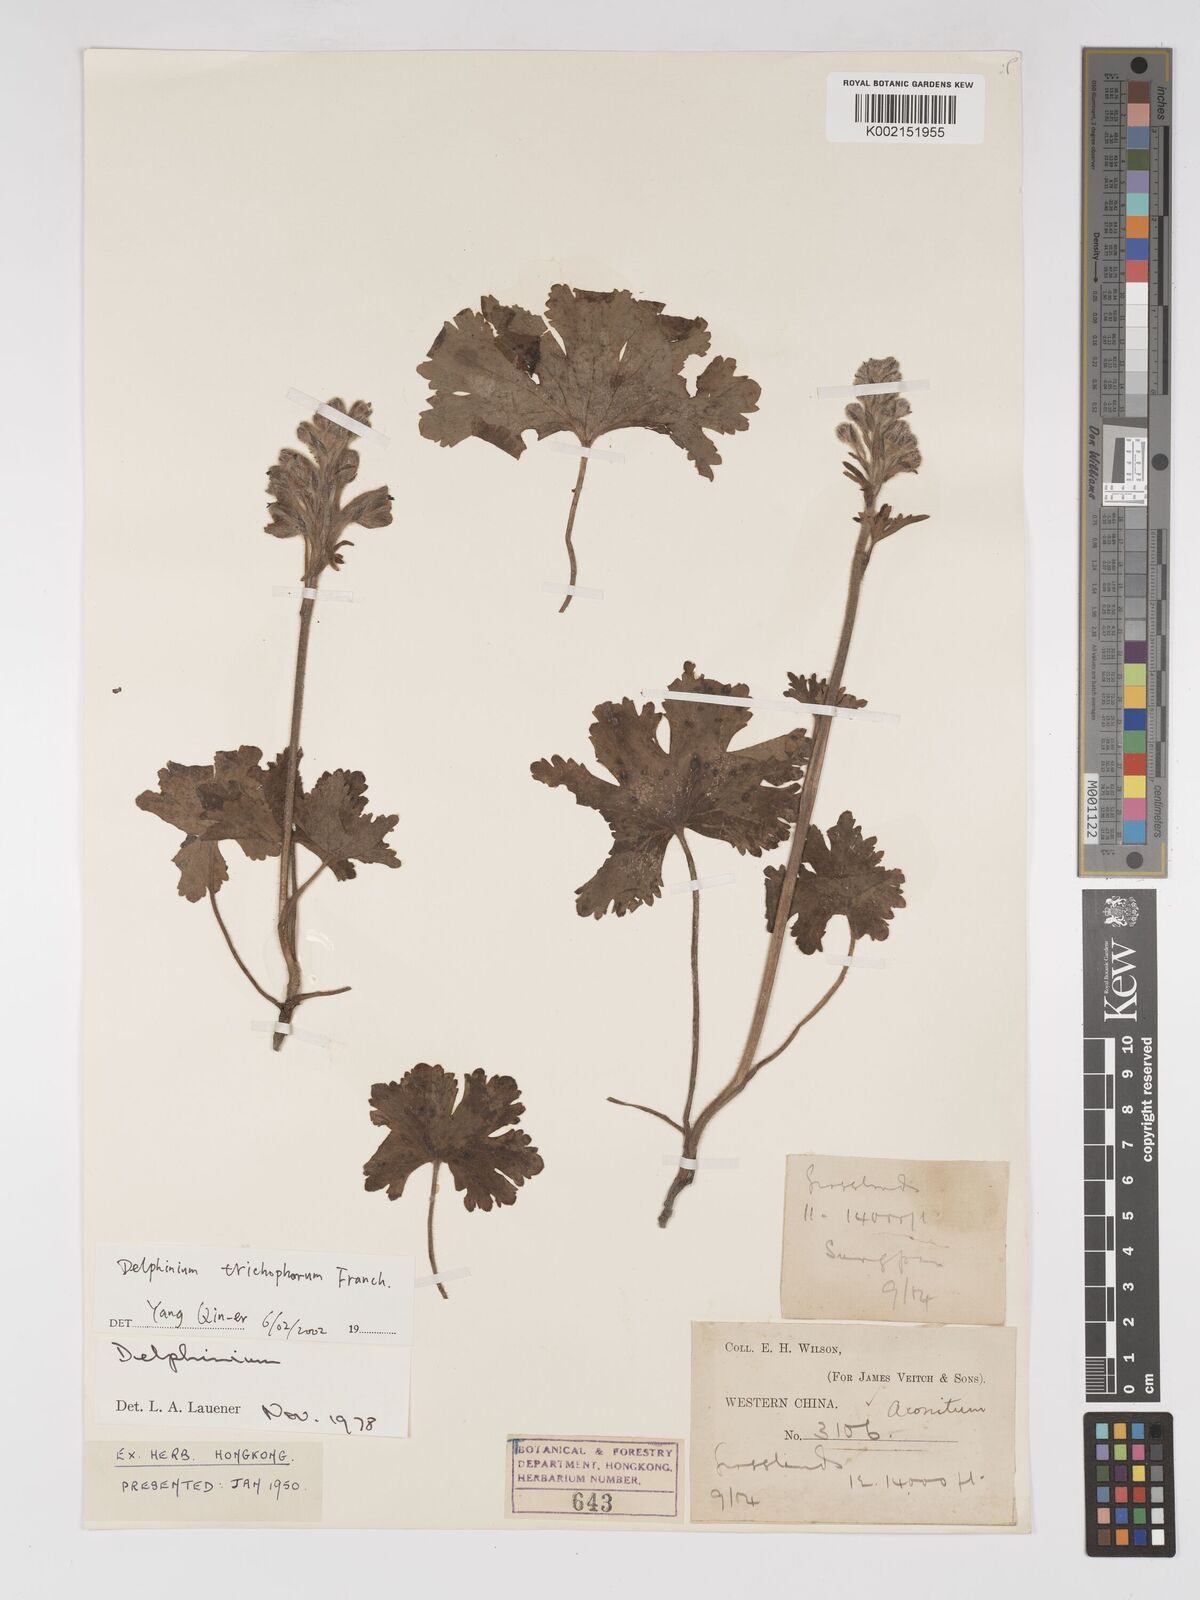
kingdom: Plantae
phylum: Tracheophyta
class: Magnoliopsida
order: Ranunculales
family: Ranunculaceae
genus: Delphinium
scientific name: Delphinium trichophorum
